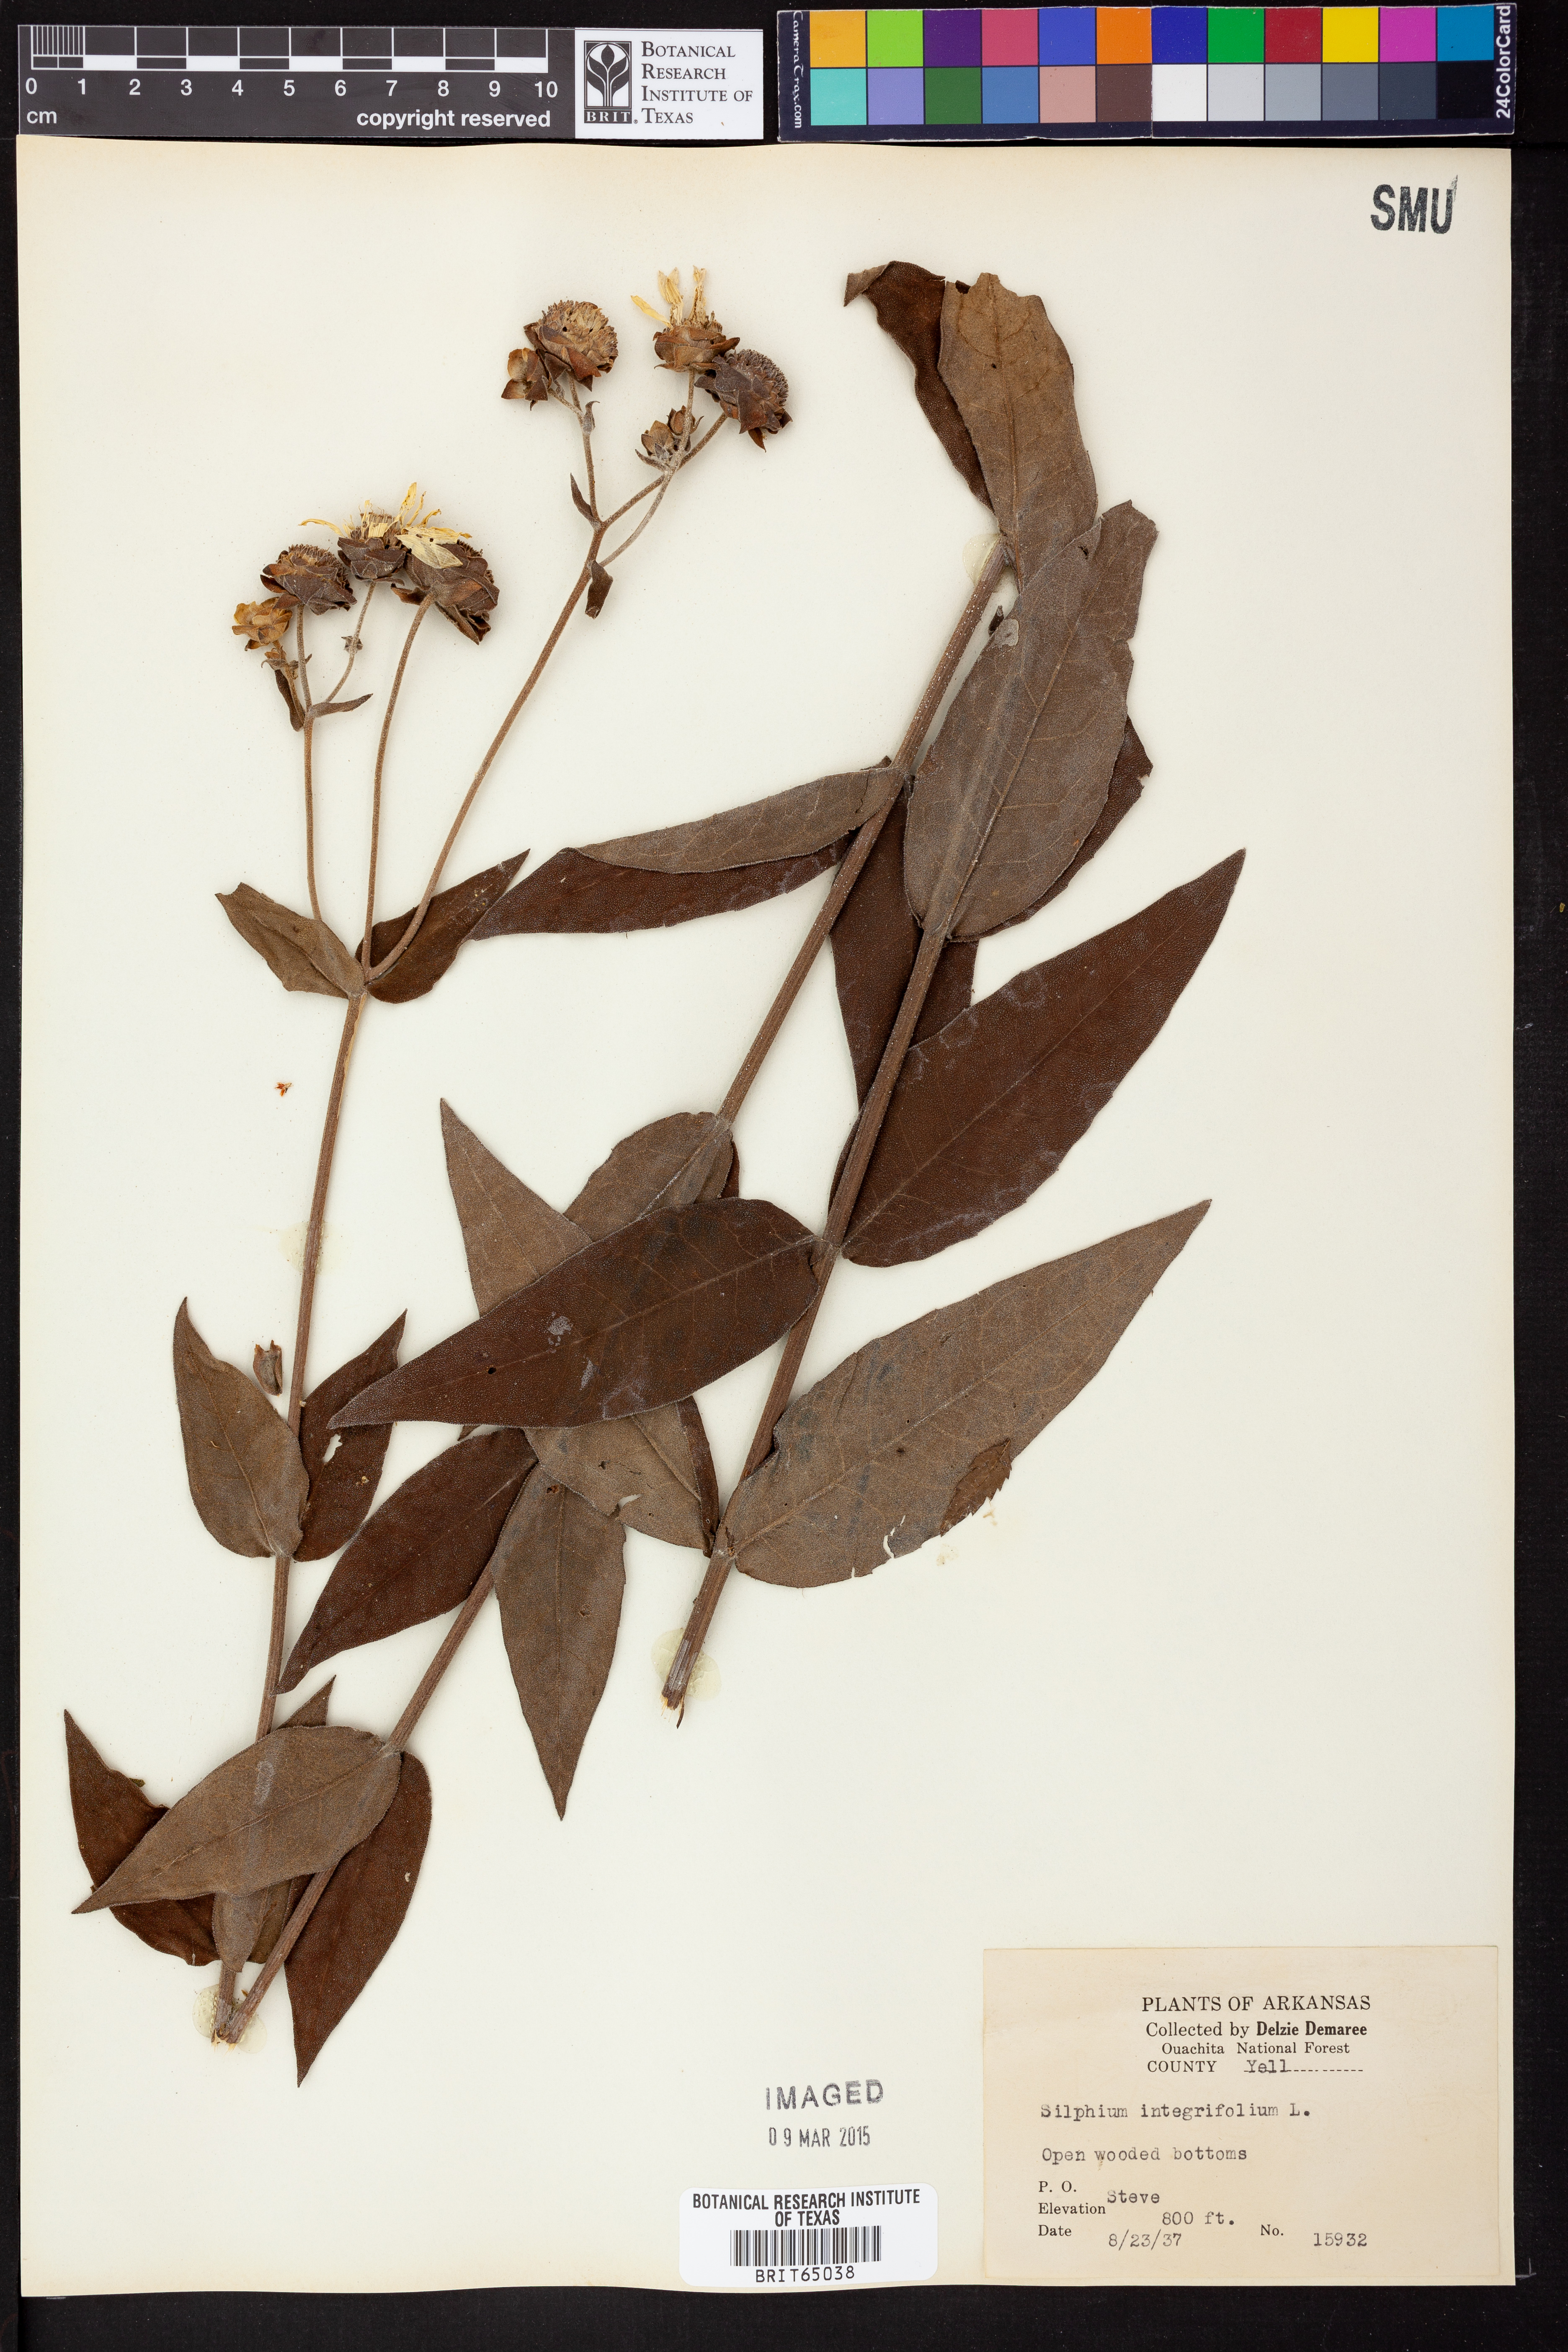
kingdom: Plantae
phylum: Tracheophyta
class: Magnoliopsida
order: Asterales
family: Asteraceae
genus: Silphium
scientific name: Silphium integrifolium
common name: Whole-leaf rosinweed
